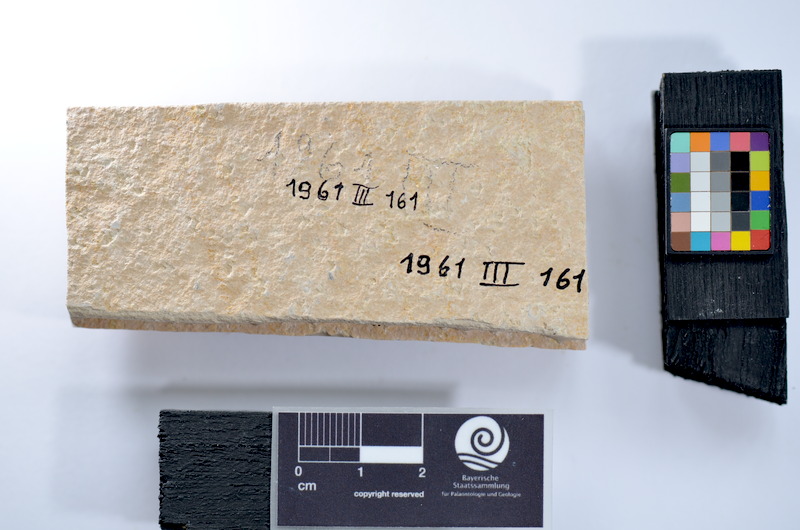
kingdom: Animalia
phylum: Chordata
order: Salmoniformes
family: Orthogonikleithridae
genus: Leptolepides
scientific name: Leptolepides
